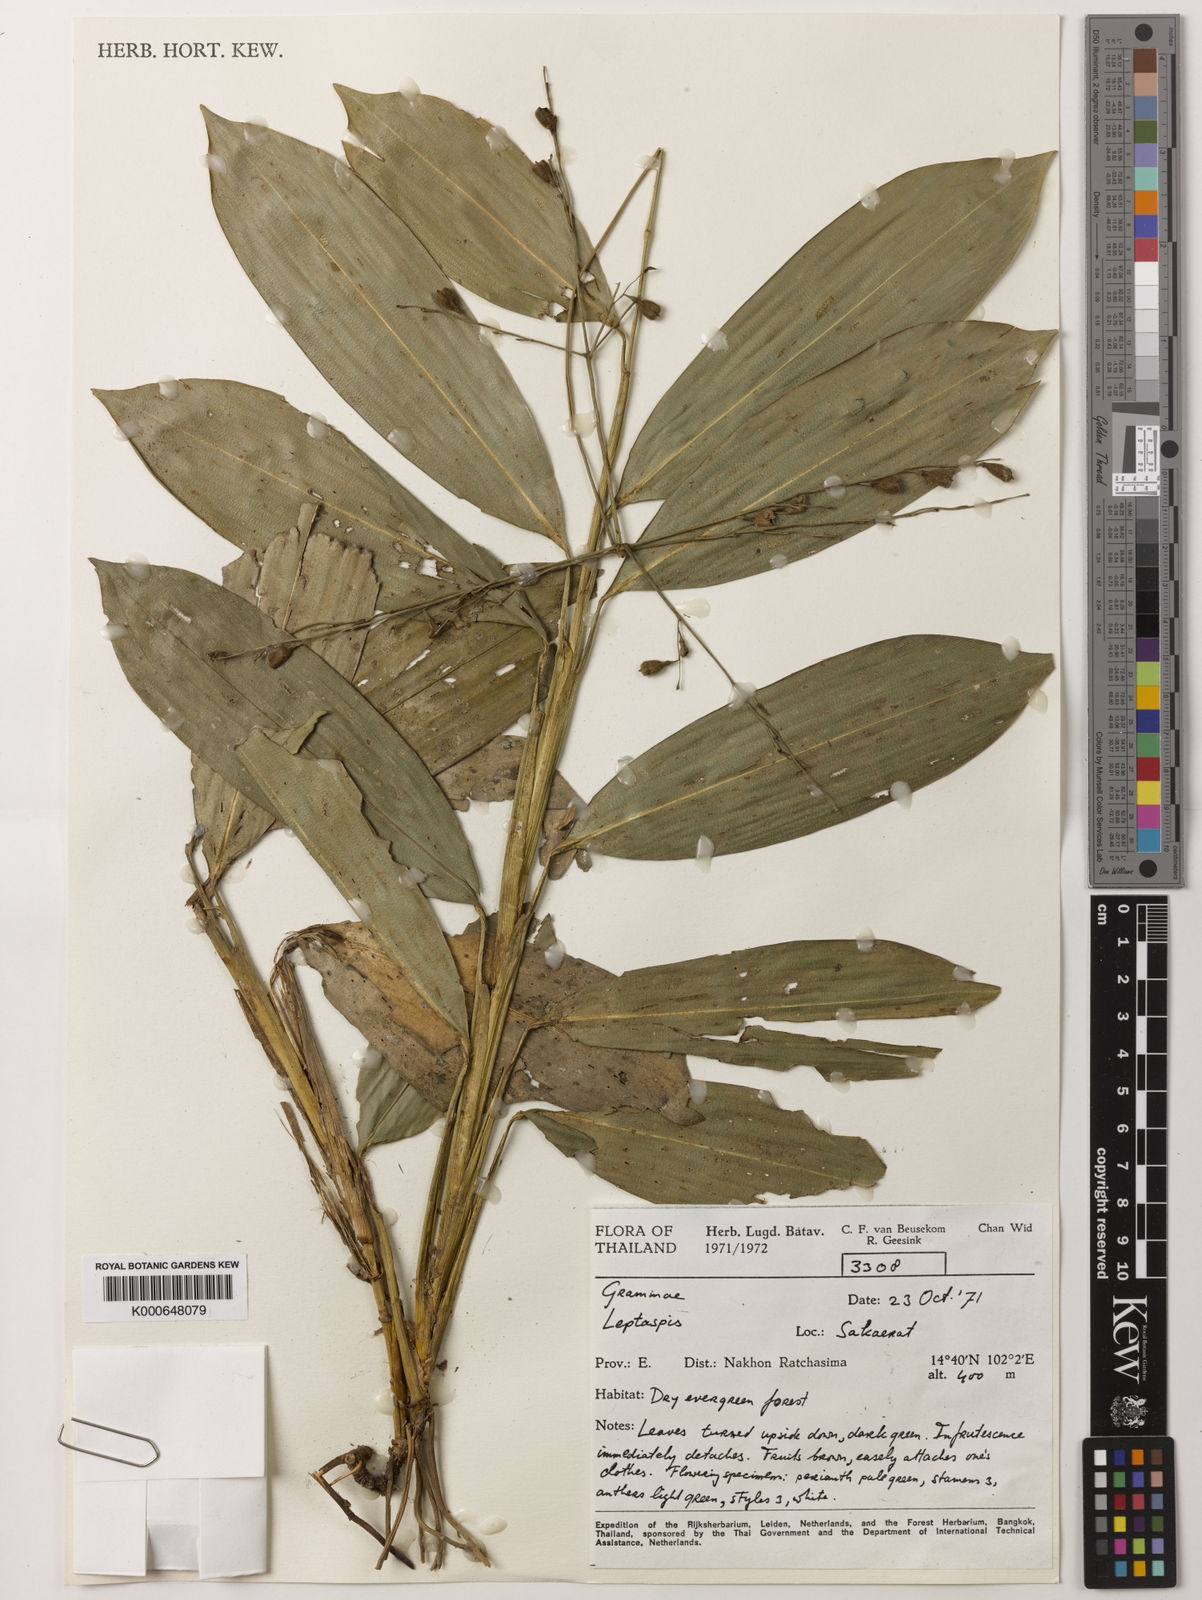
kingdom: Plantae
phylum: Tracheophyta
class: Liliopsida
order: Poales
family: Poaceae
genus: Scrotochloa
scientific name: Scrotochloa urceolata
